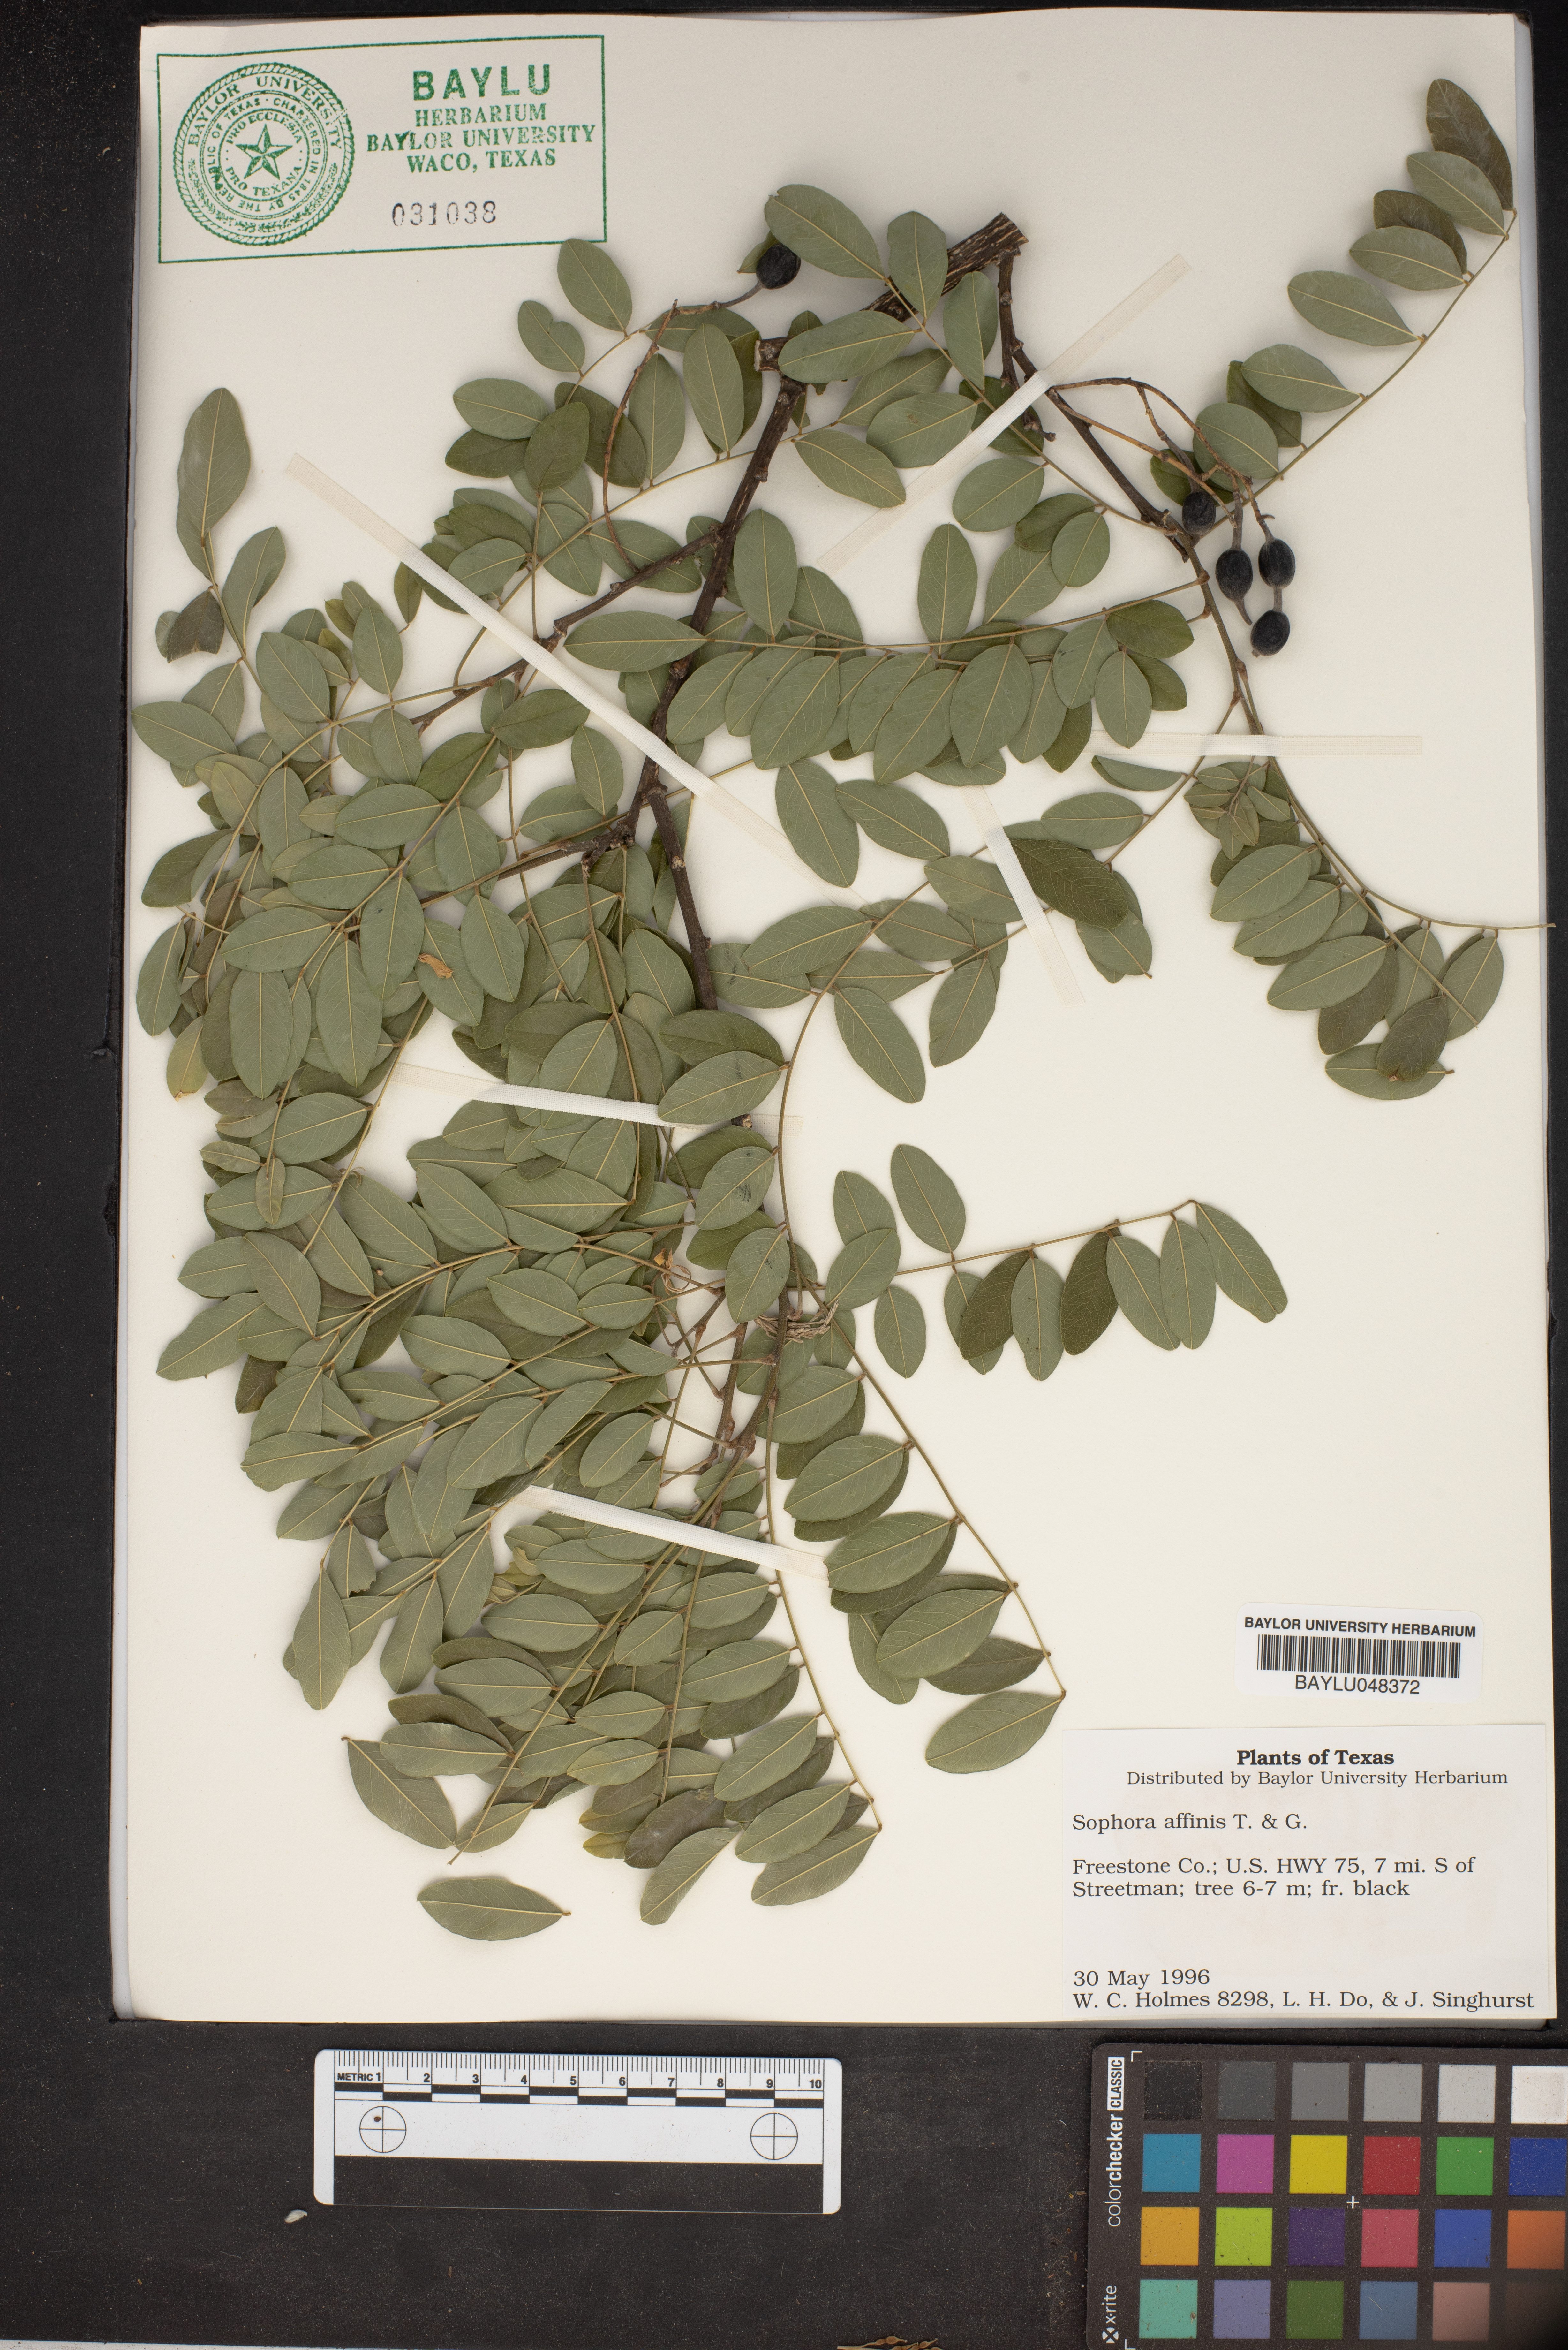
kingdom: Plantae
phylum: Tracheophyta
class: Magnoliopsida
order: Fabales
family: Fabaceae
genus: Styphnolobium
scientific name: Styphnolobium affine
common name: Texas sophora
